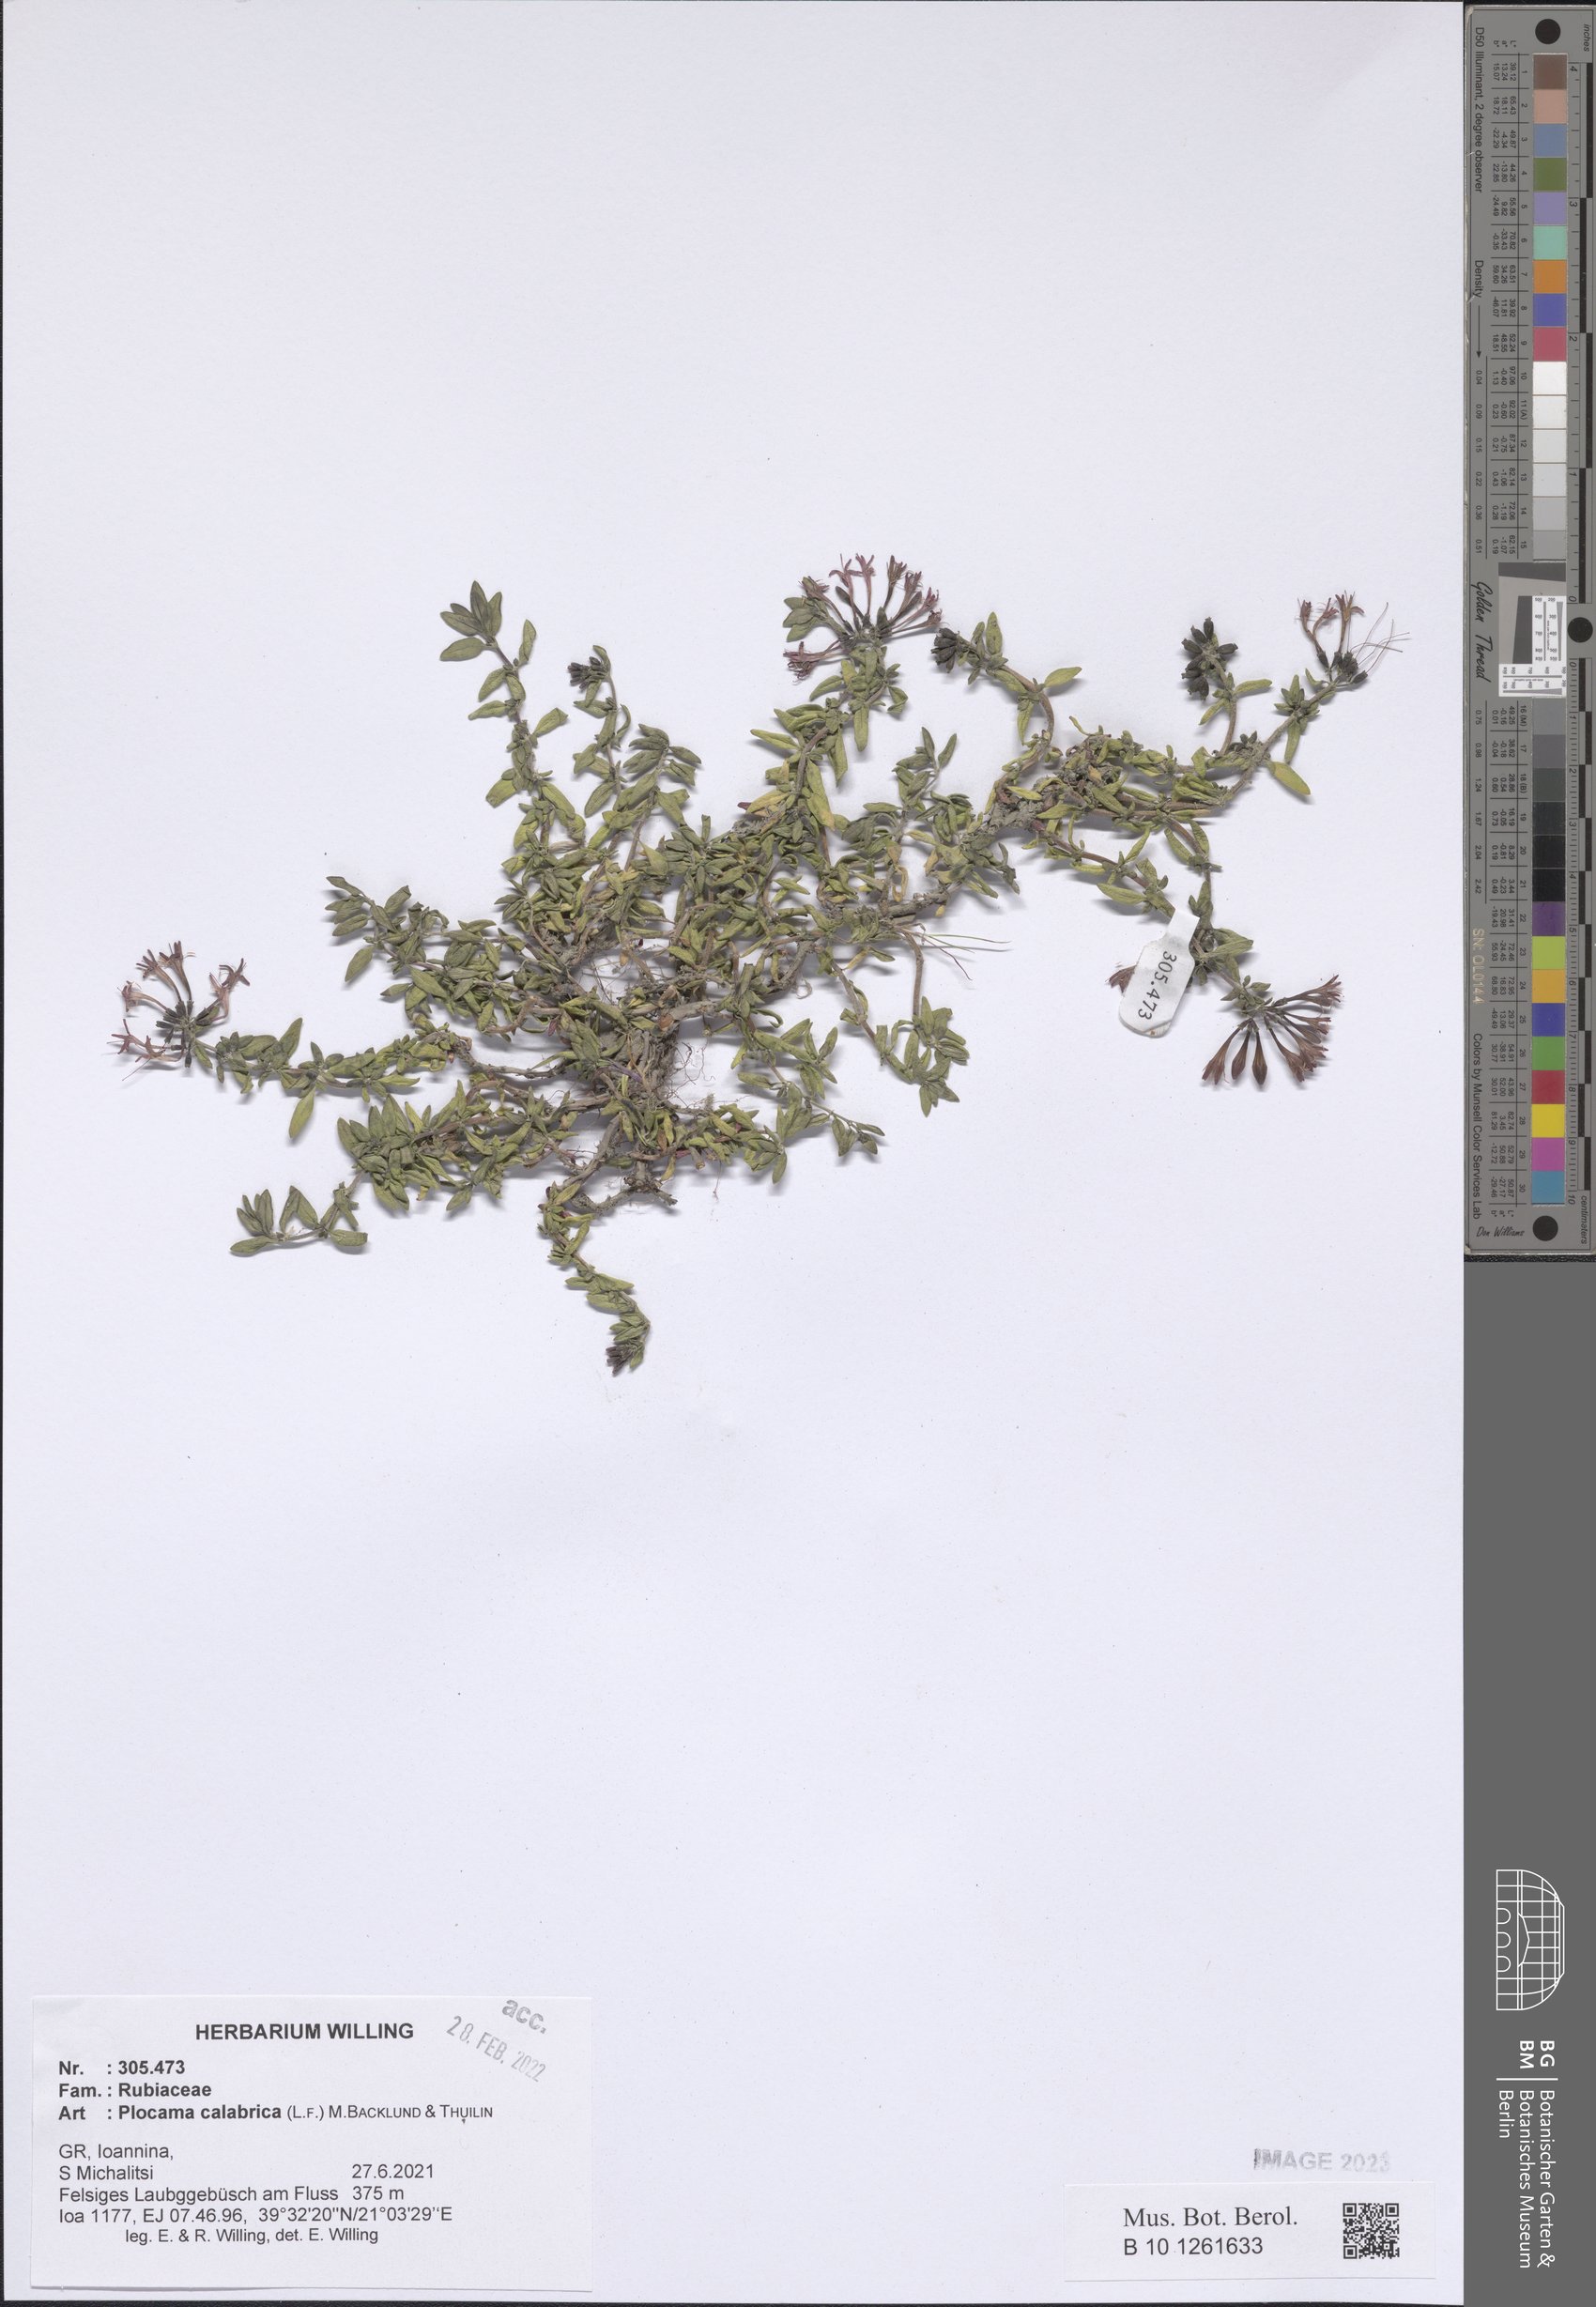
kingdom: Plantae
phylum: Tracheophyta
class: Magnoliopsida
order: Gentianales
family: Rubiaceae
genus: Plocama
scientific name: Plocama calabrica
